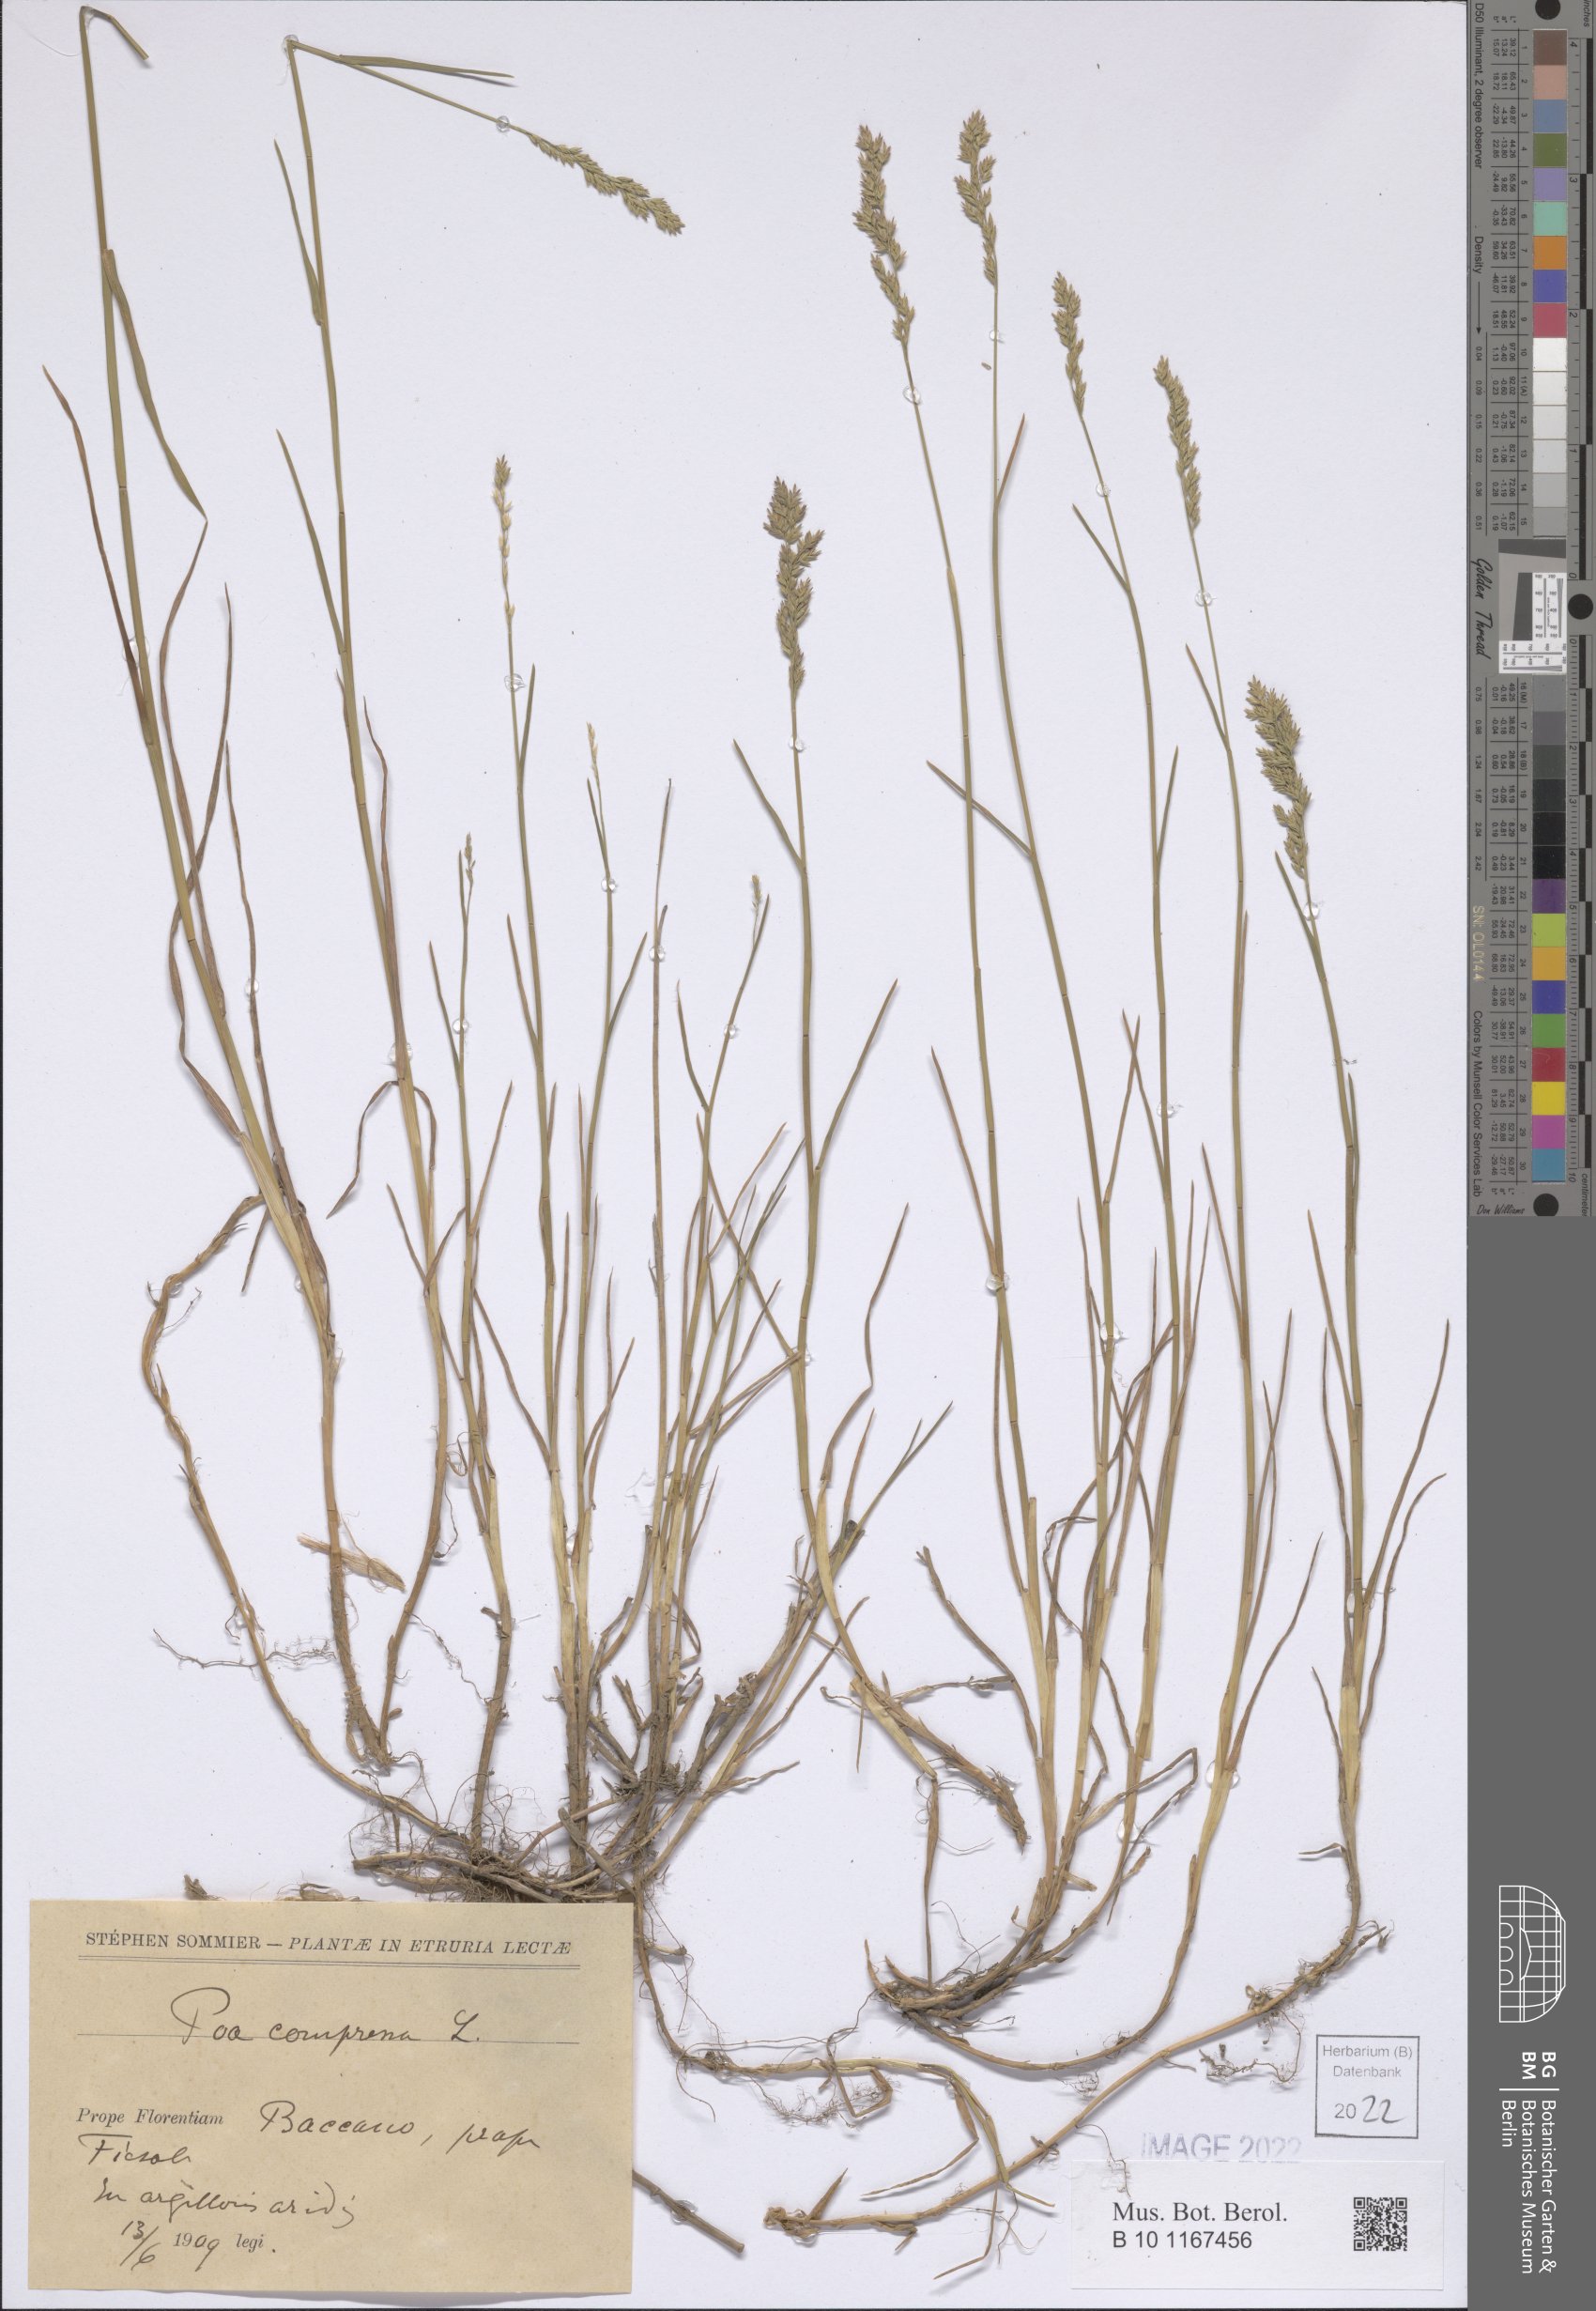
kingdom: Plantae
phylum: Tracheophyta
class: Liliopsida
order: Poales
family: Poaceae
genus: Poa
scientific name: Poa compressa
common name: Canada bluegrass
